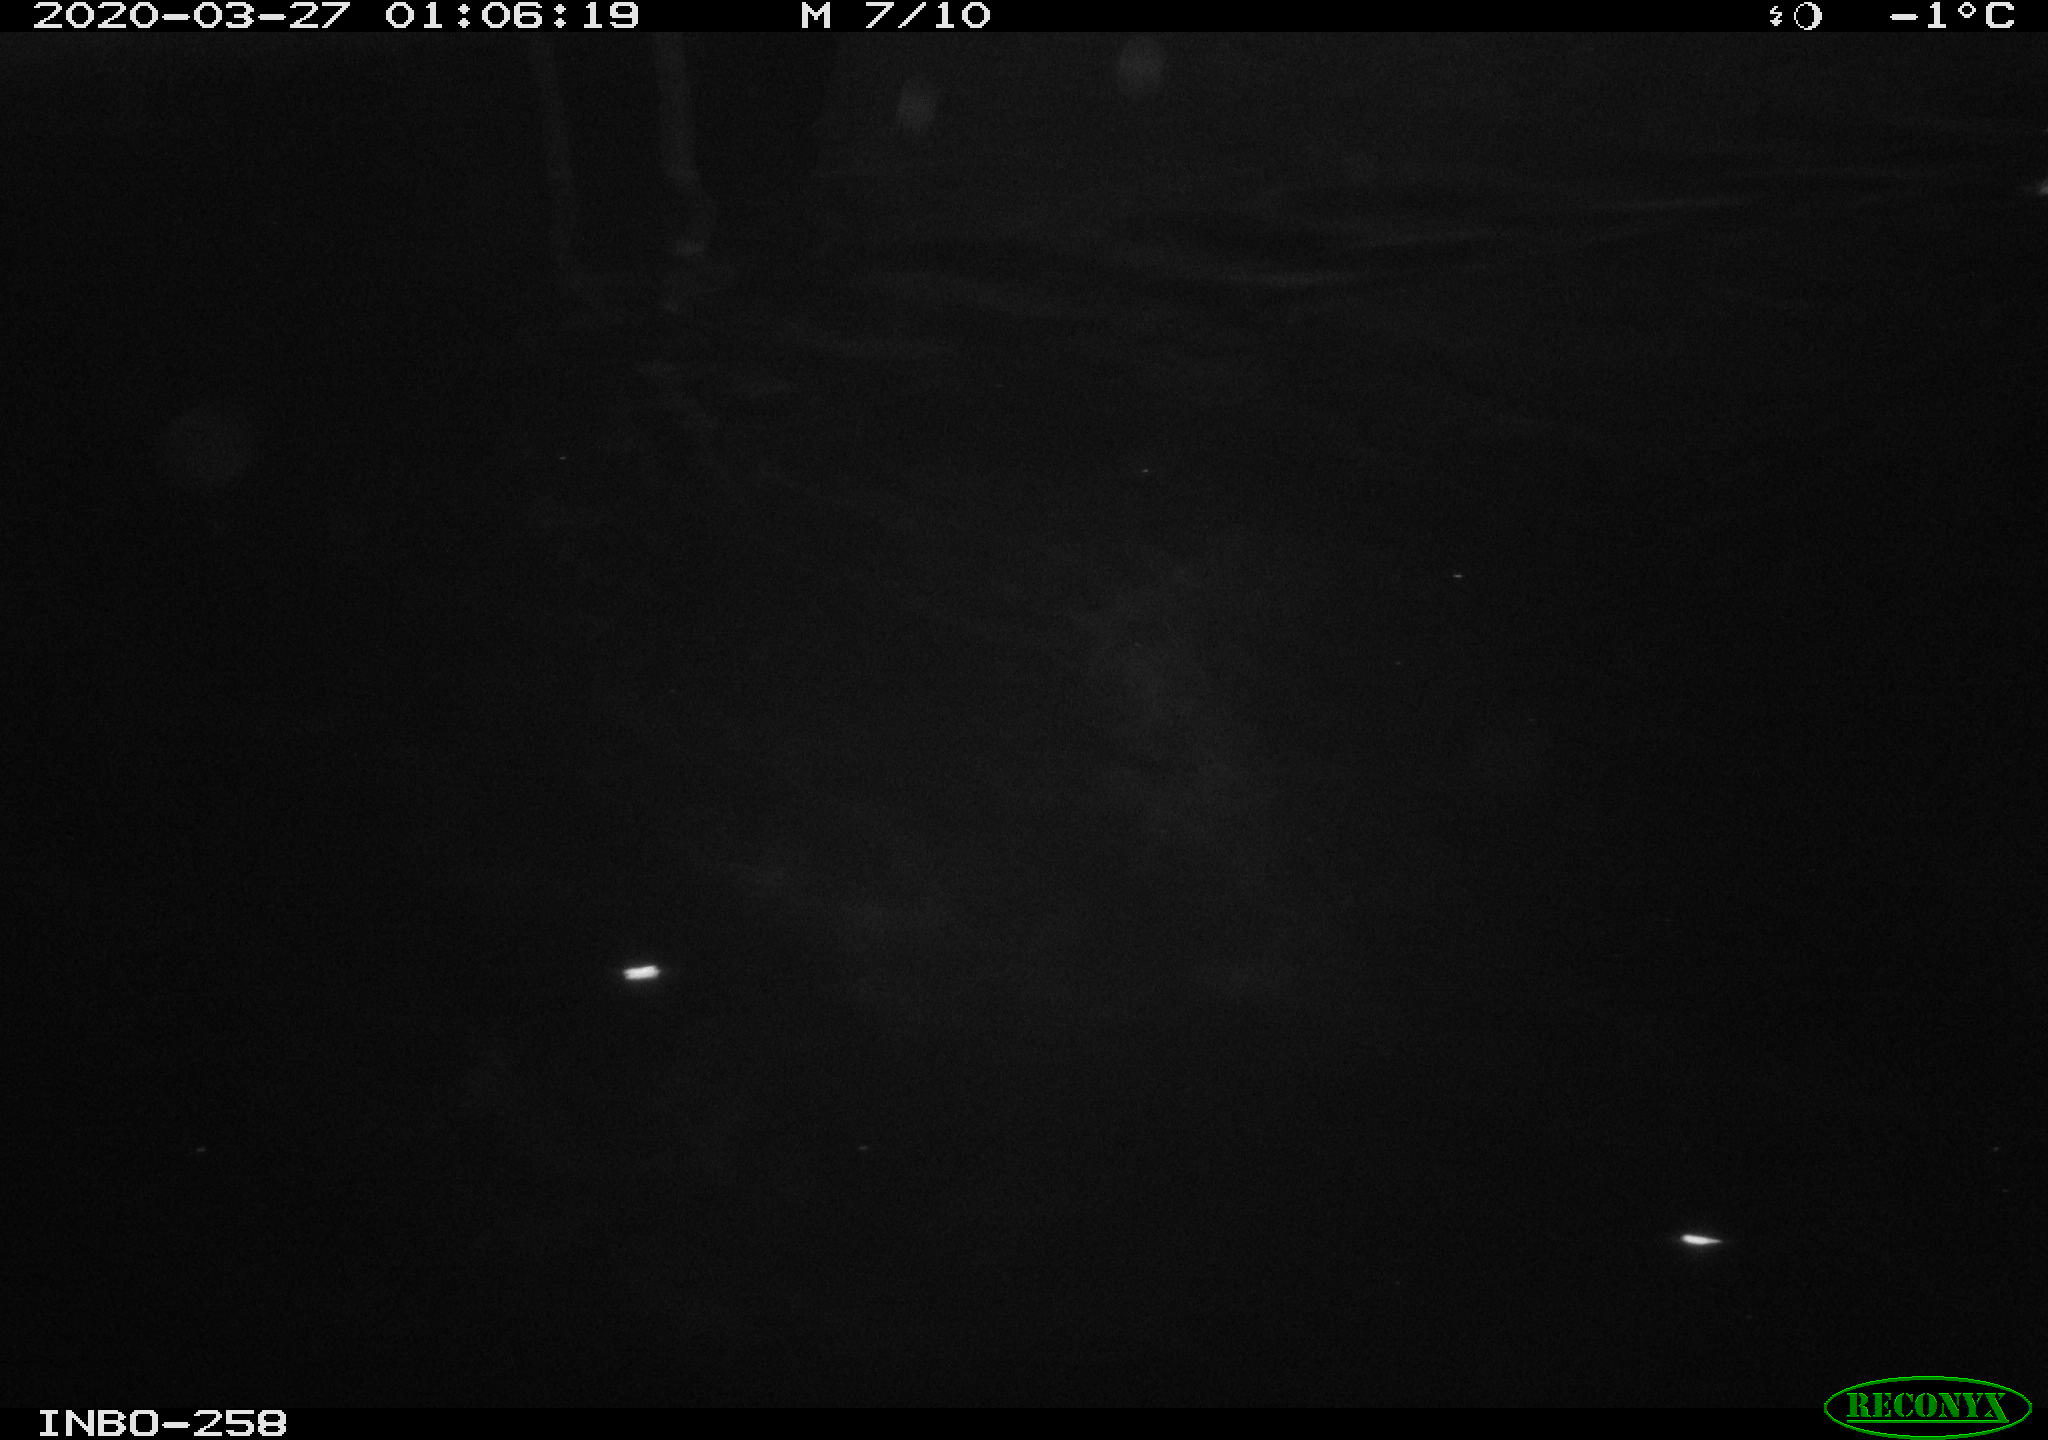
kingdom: Animalia
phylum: Chordata
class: Aves
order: Anseriformes
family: Anatidae
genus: Anas
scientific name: Anas platyrhynchos
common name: Mallard
